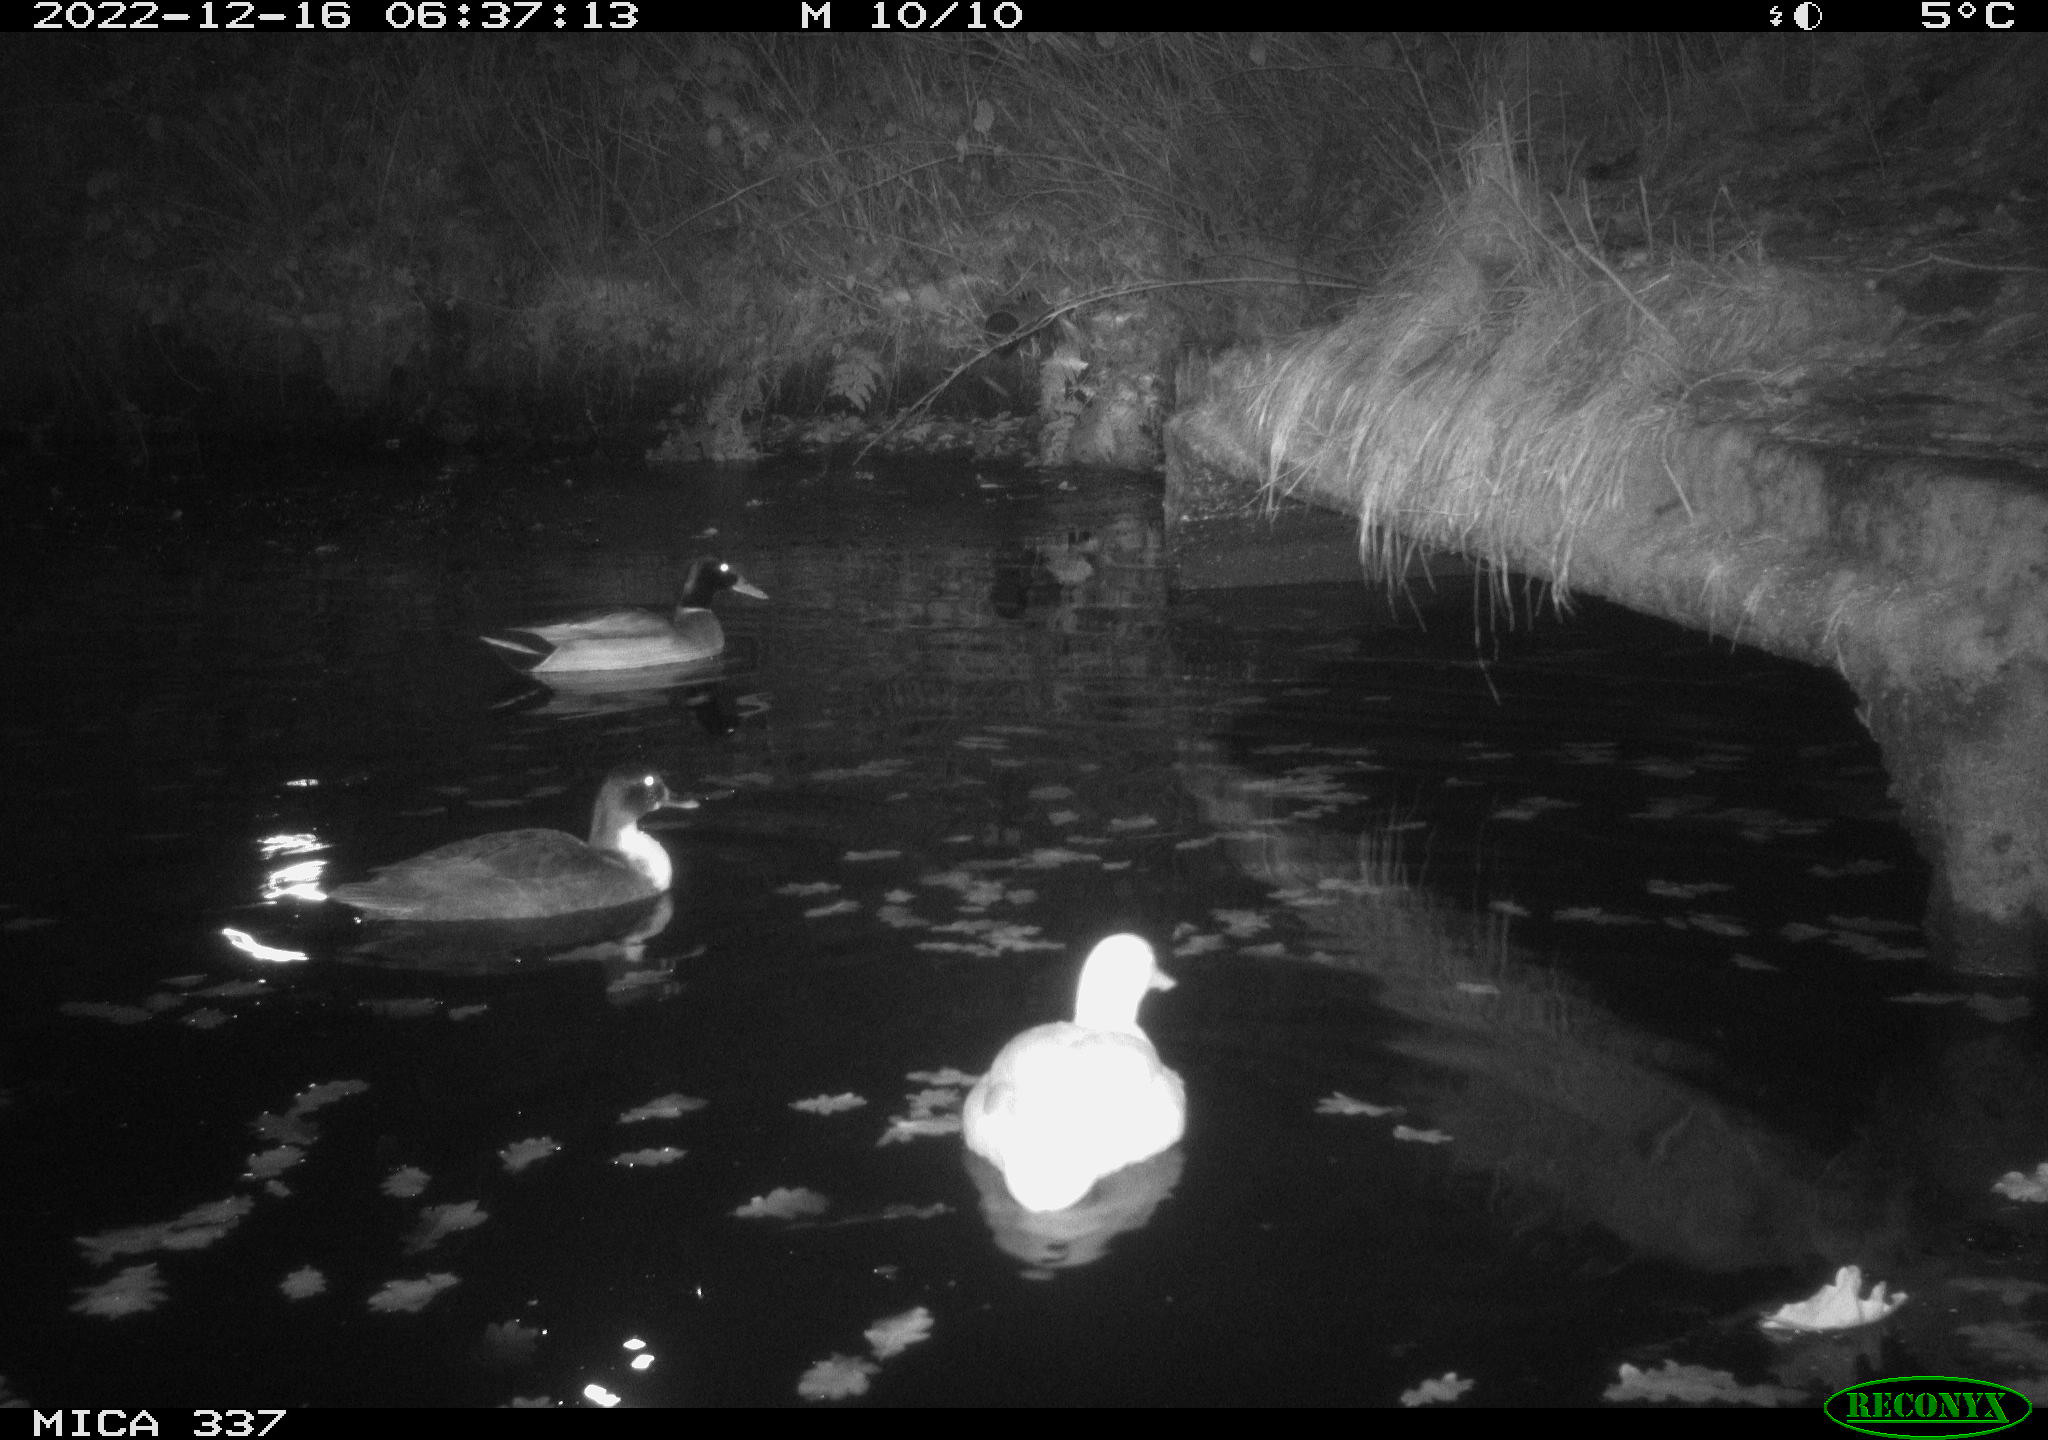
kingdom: Animalia
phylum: Chordata
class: Aves
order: Anseriformes
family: Anatidae
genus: Anas
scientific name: Anas
